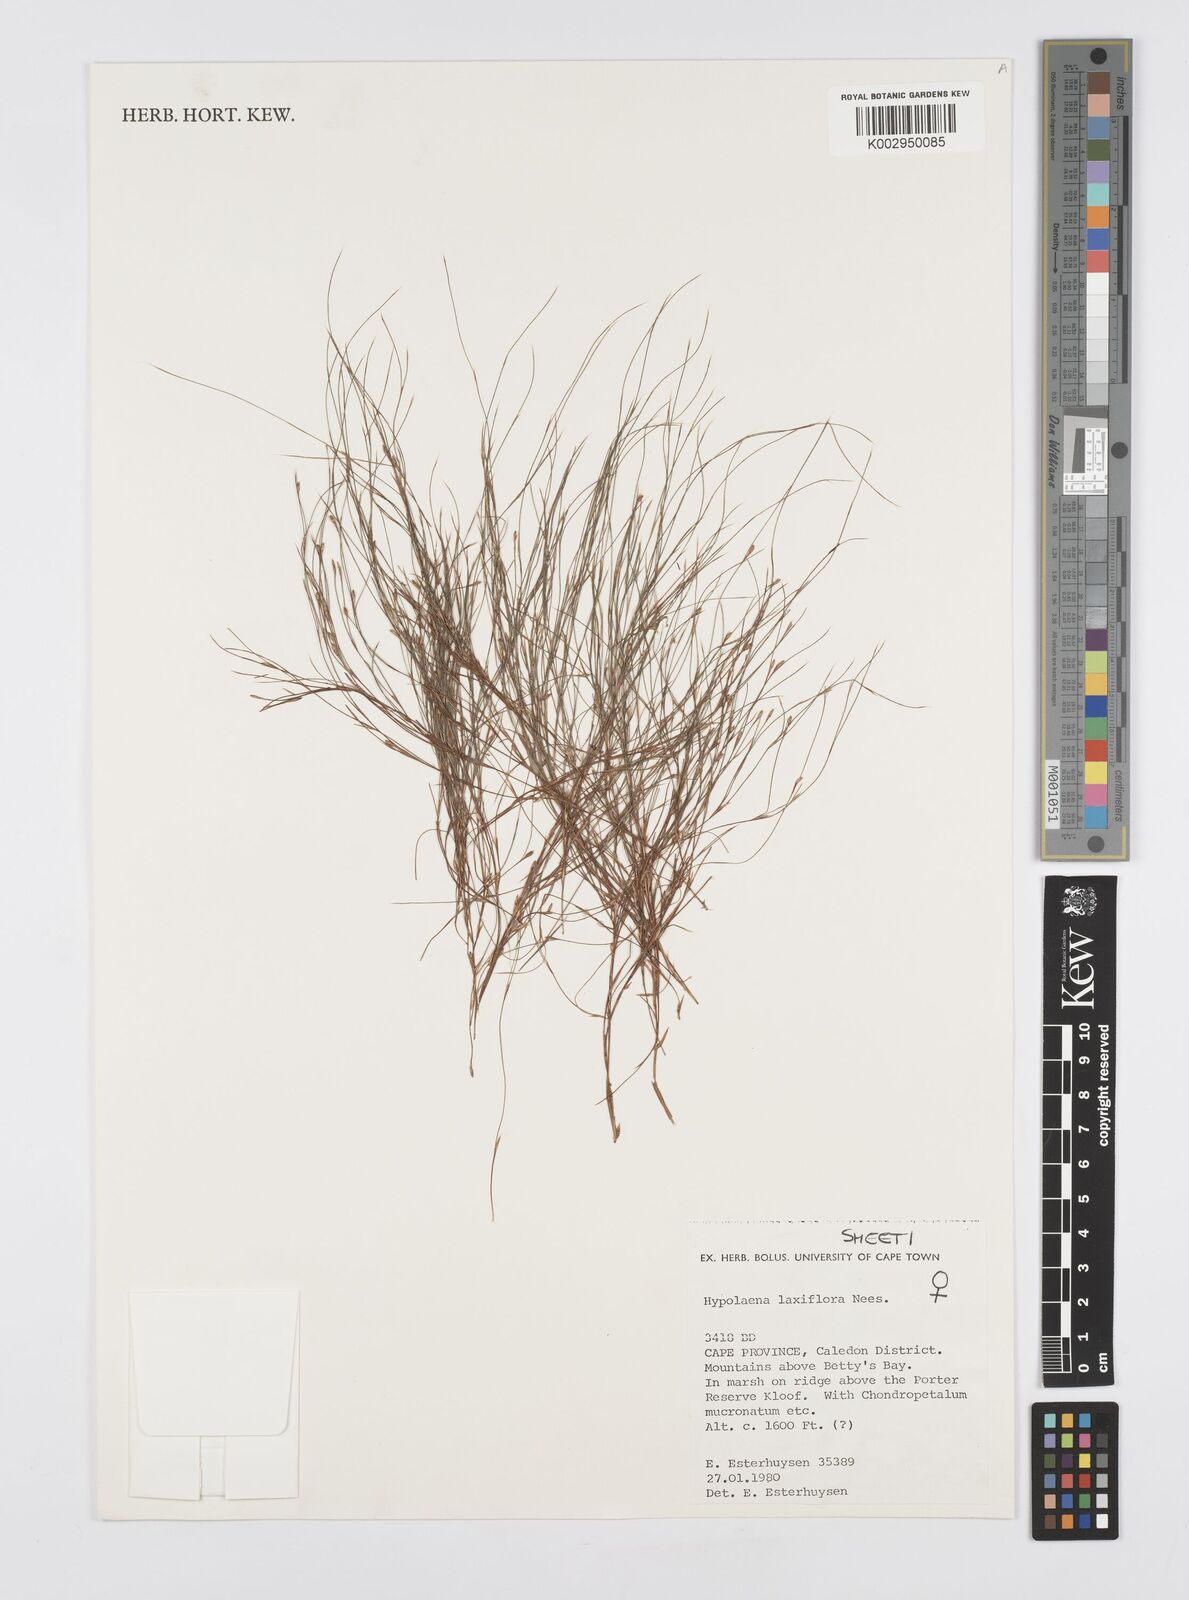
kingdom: Plantae
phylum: Tracheophyta
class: Liliopsida
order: Poales
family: Restionaceae
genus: Anthochortus
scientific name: Anthochortus laxiflorus
